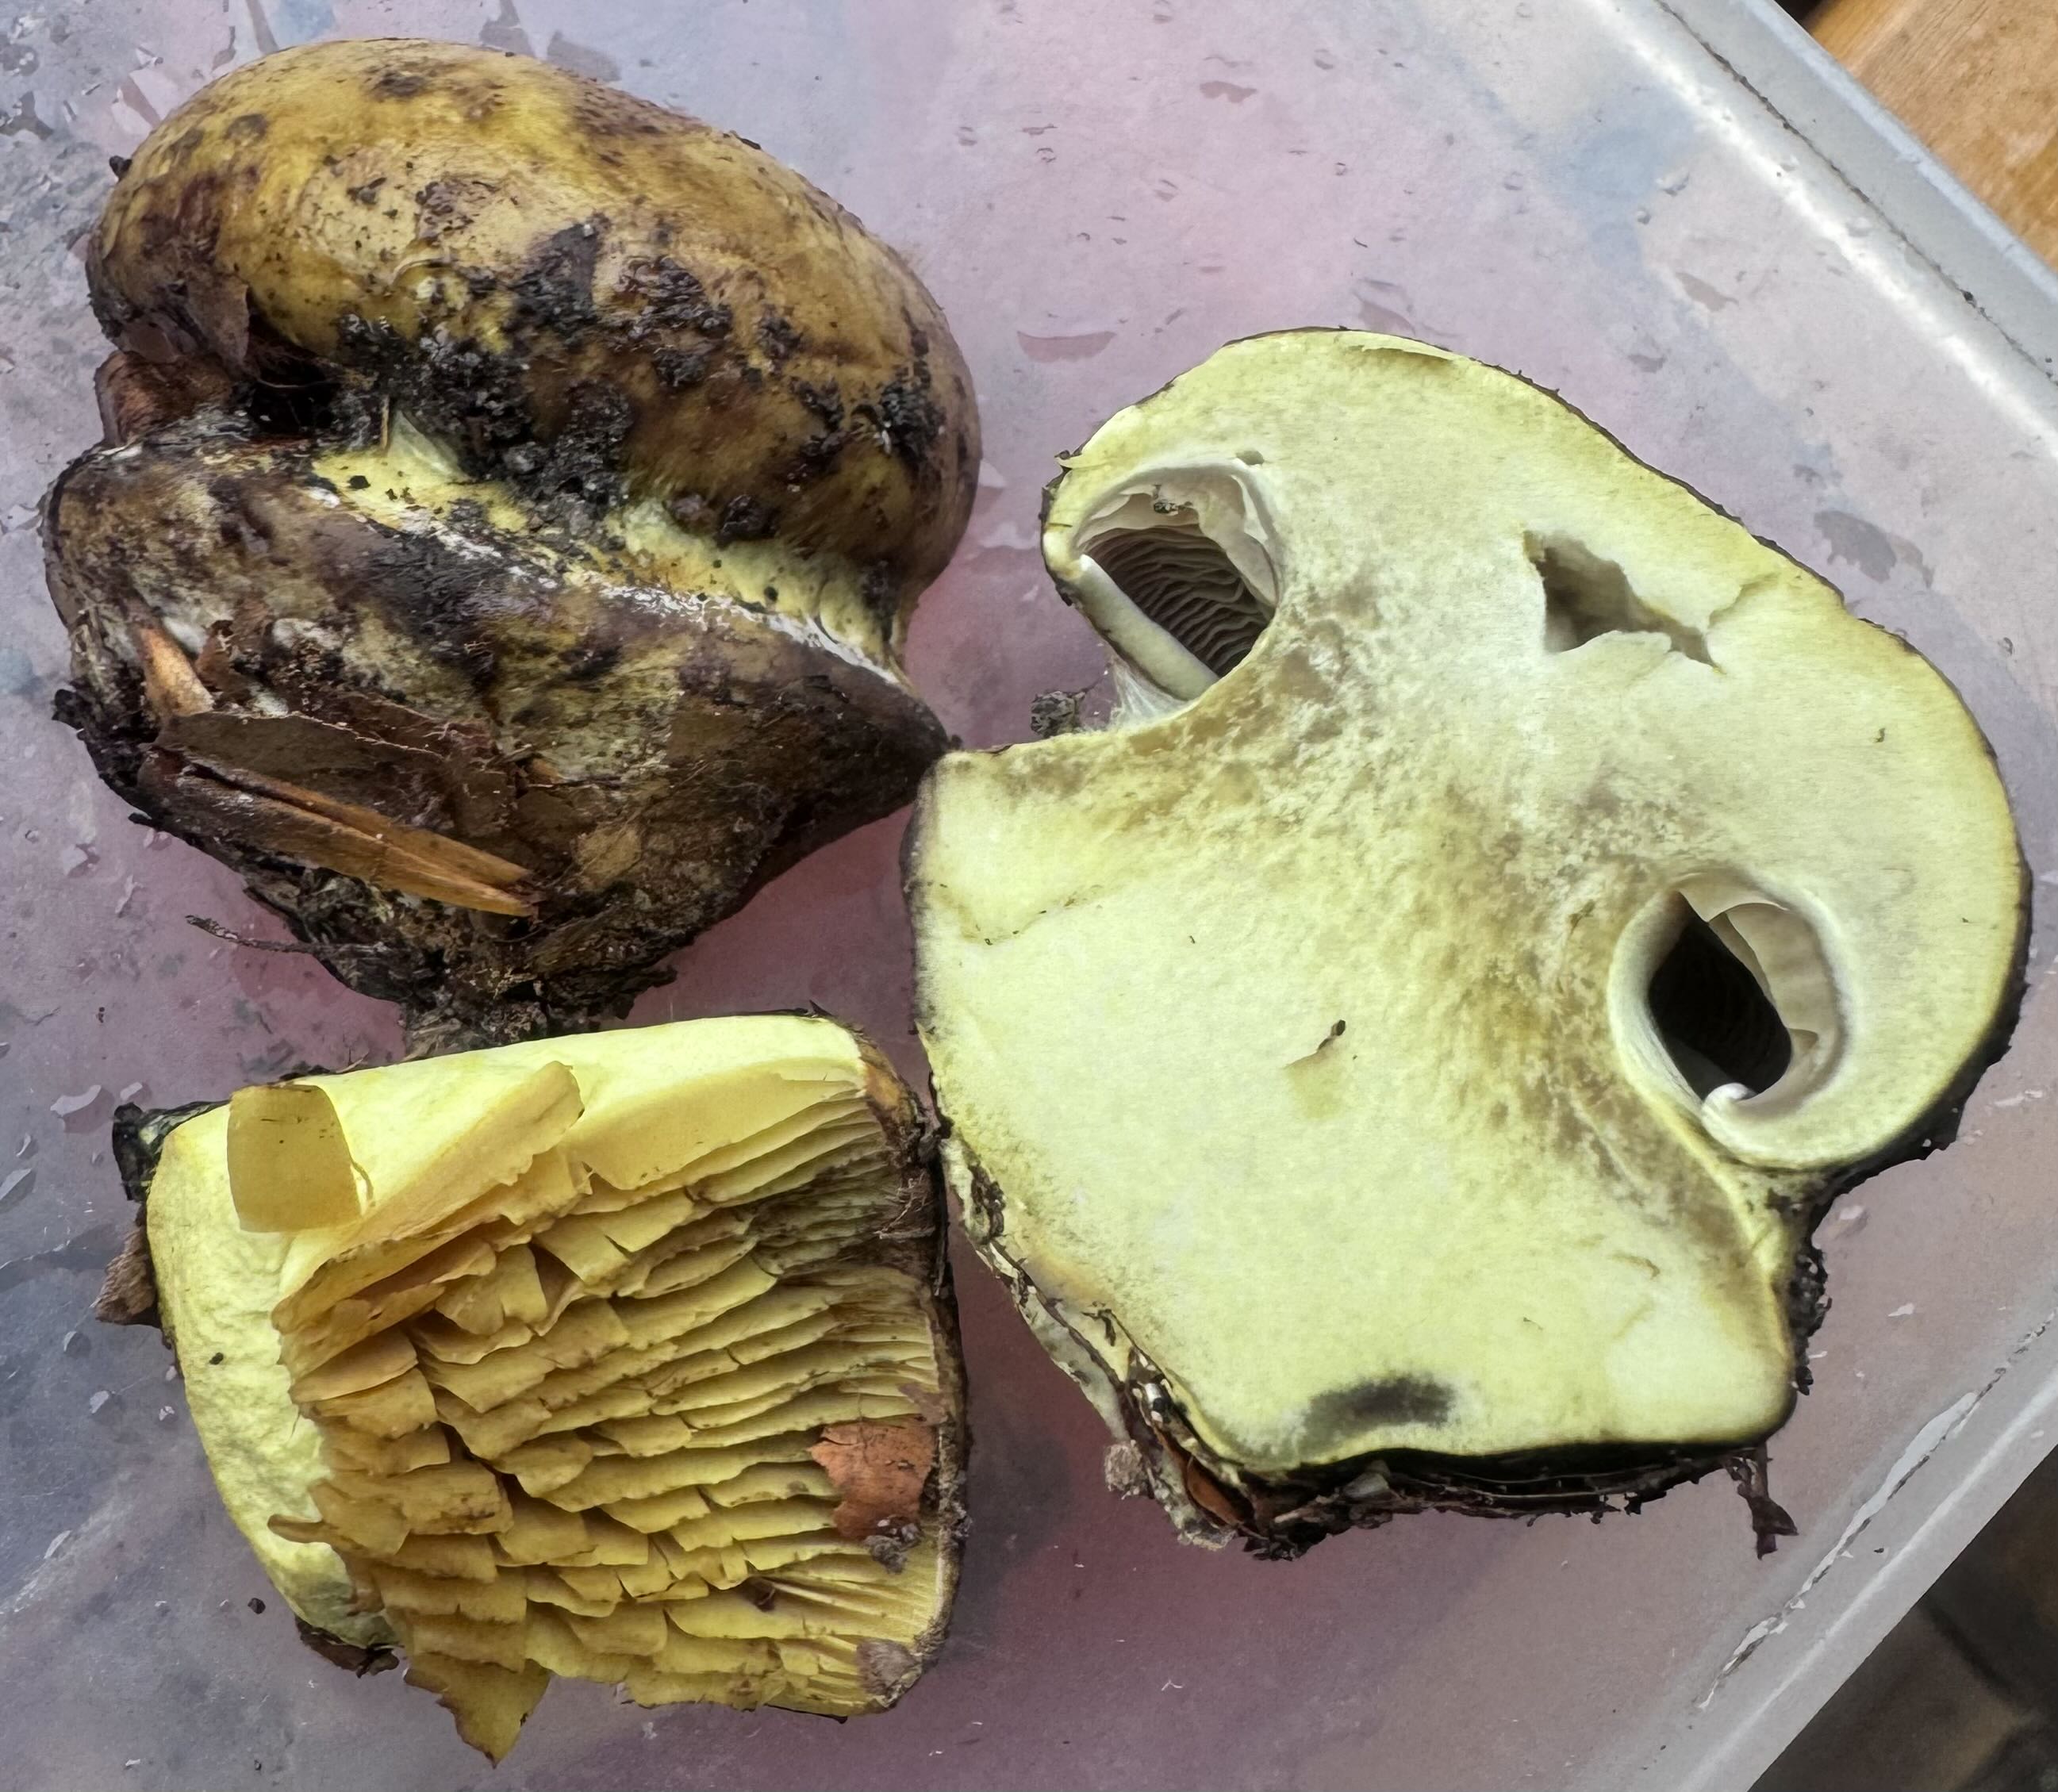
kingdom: Fungi
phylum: Basidiomycota
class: Agaricomycetes
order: Agaricales
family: Cortinariaceae
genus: Calonarius
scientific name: Calonarius citrinus
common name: citrongul slørhat
